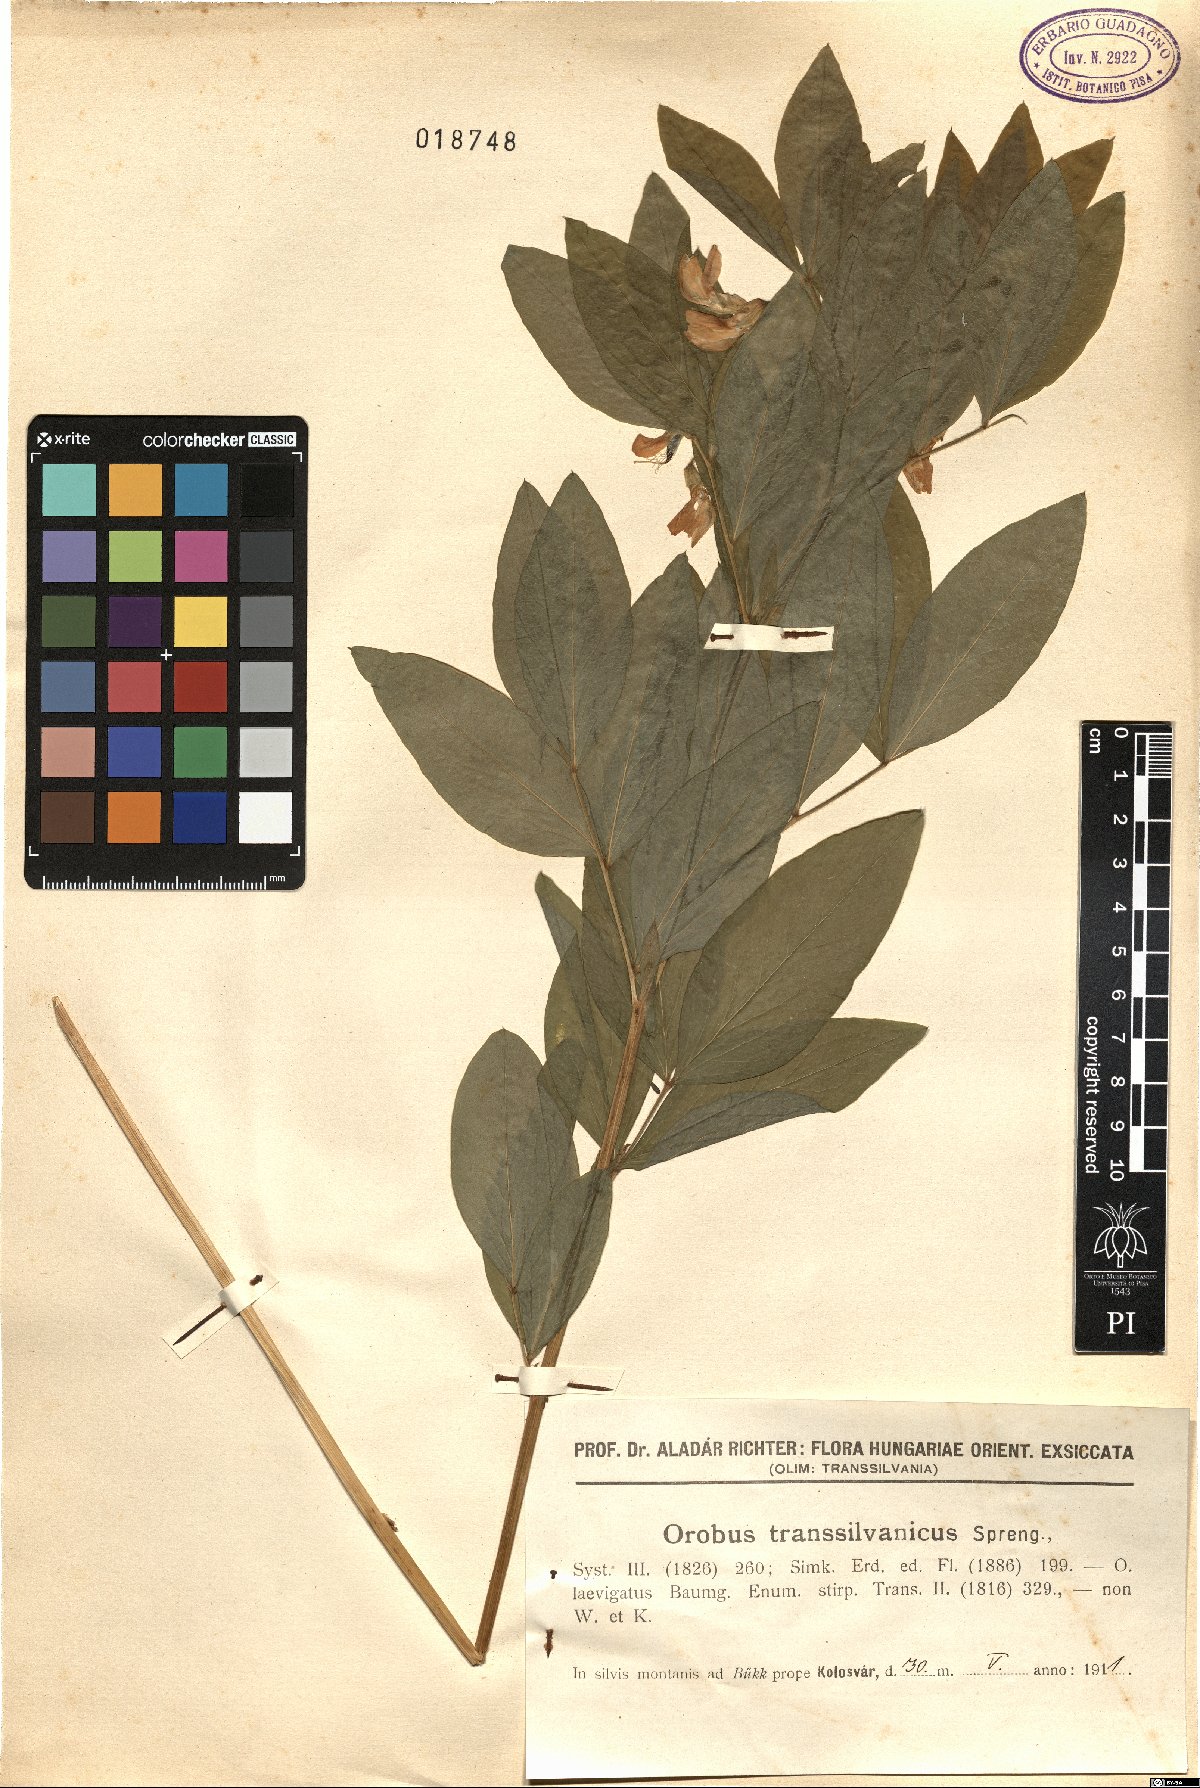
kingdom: Plantae
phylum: Tracheophyta
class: Magnoliopsida
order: Fabales
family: Fabaceae
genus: Lathyrus
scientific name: Lathyrus transsylvanicus
